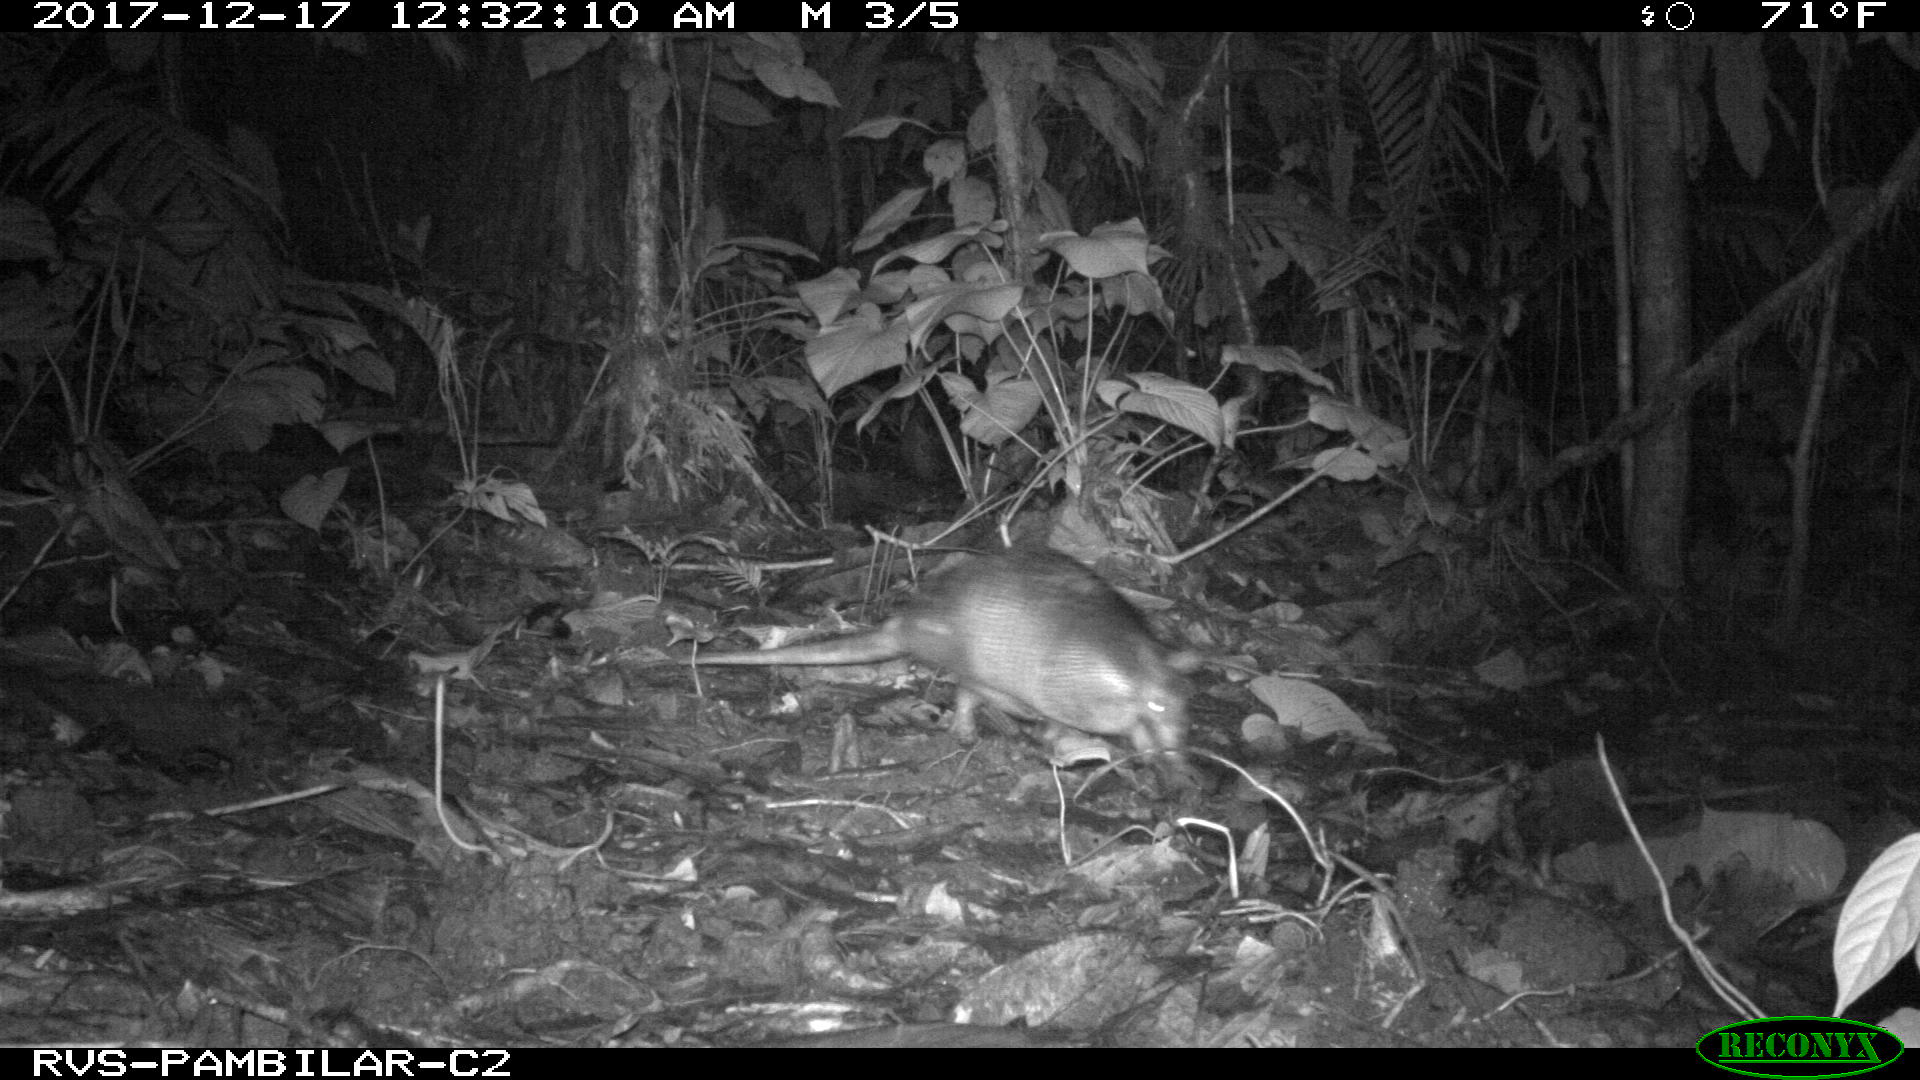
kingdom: Animalia
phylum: Chordata
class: Mammalia
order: Cingulata
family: Dasypodidae
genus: Dasypus
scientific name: Dasypus novemcinctus
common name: Nine-banded armadillo
